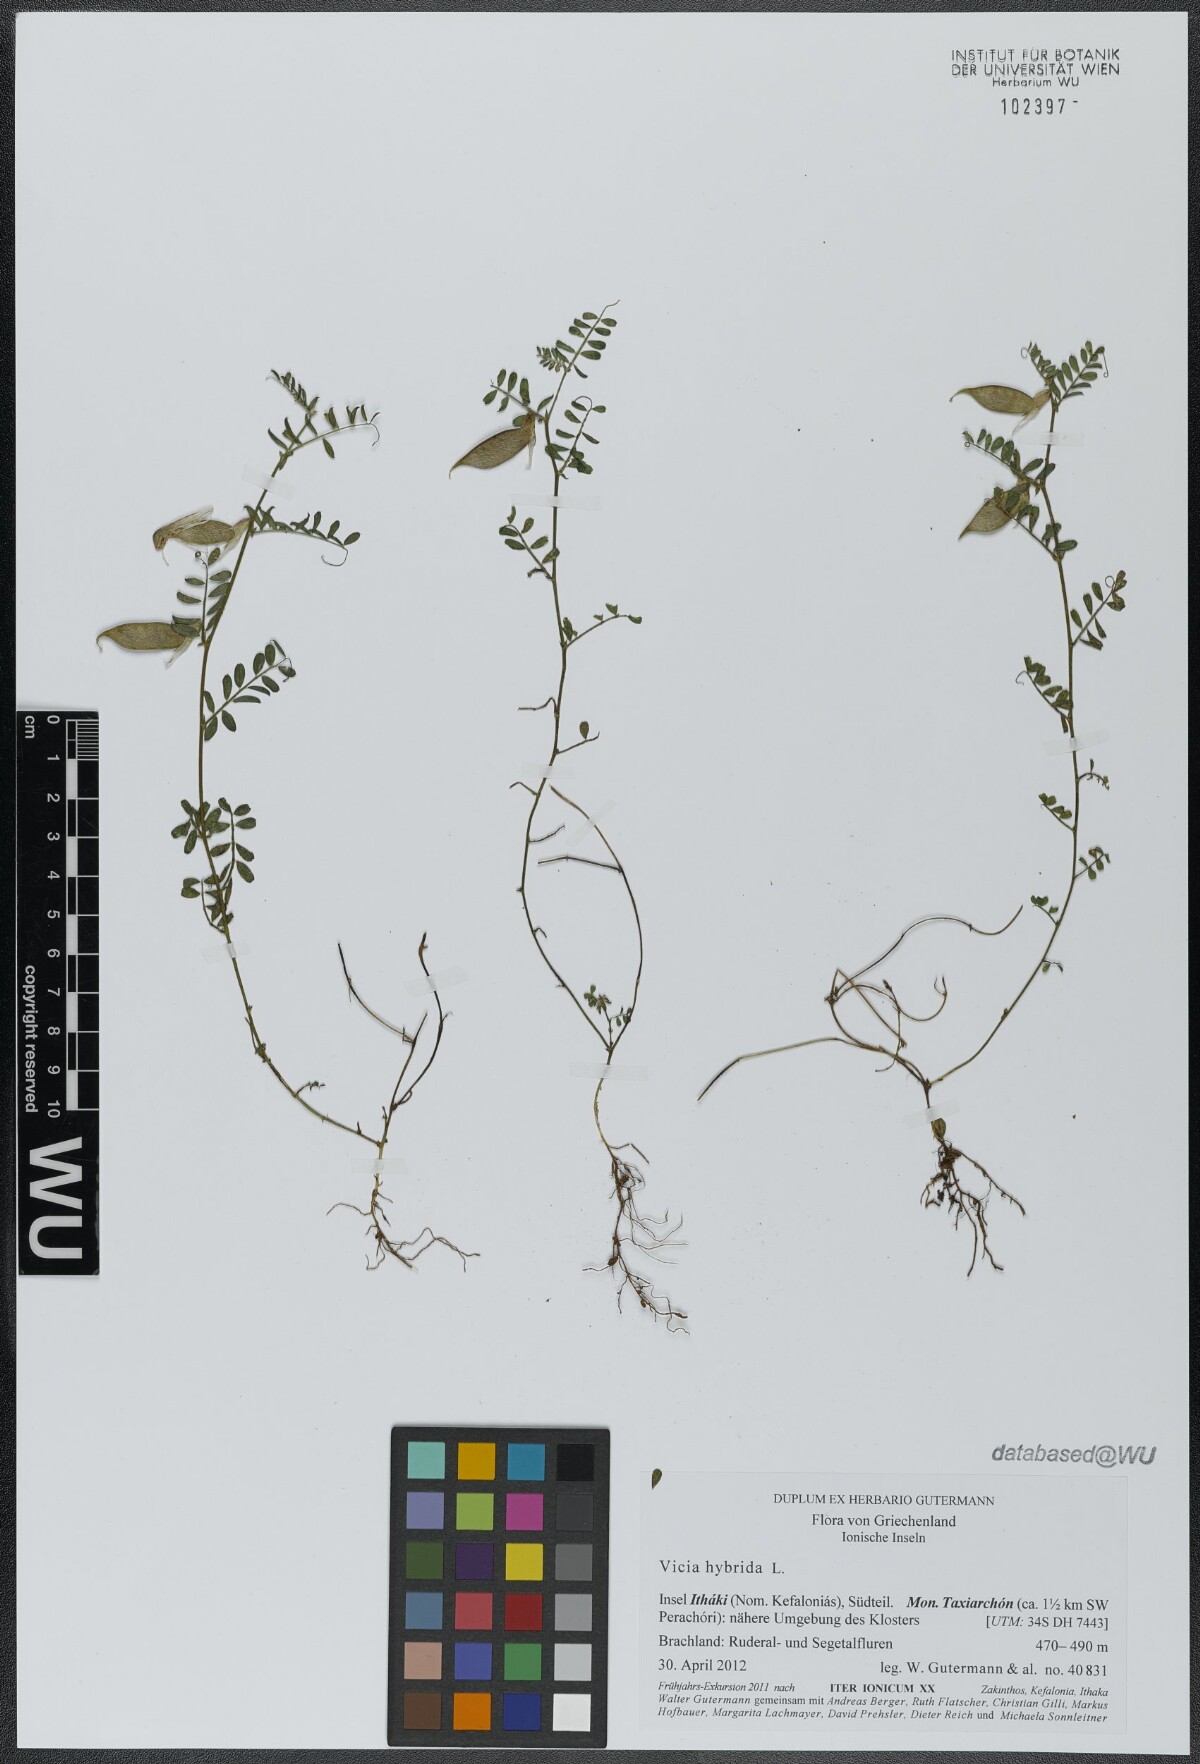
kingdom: Plantae
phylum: Tracheophyta
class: Magnoliopsida
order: Fabales
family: Fabaceae
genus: Vicia
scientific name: Vicia hybrida
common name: Hairy yellow vetch
